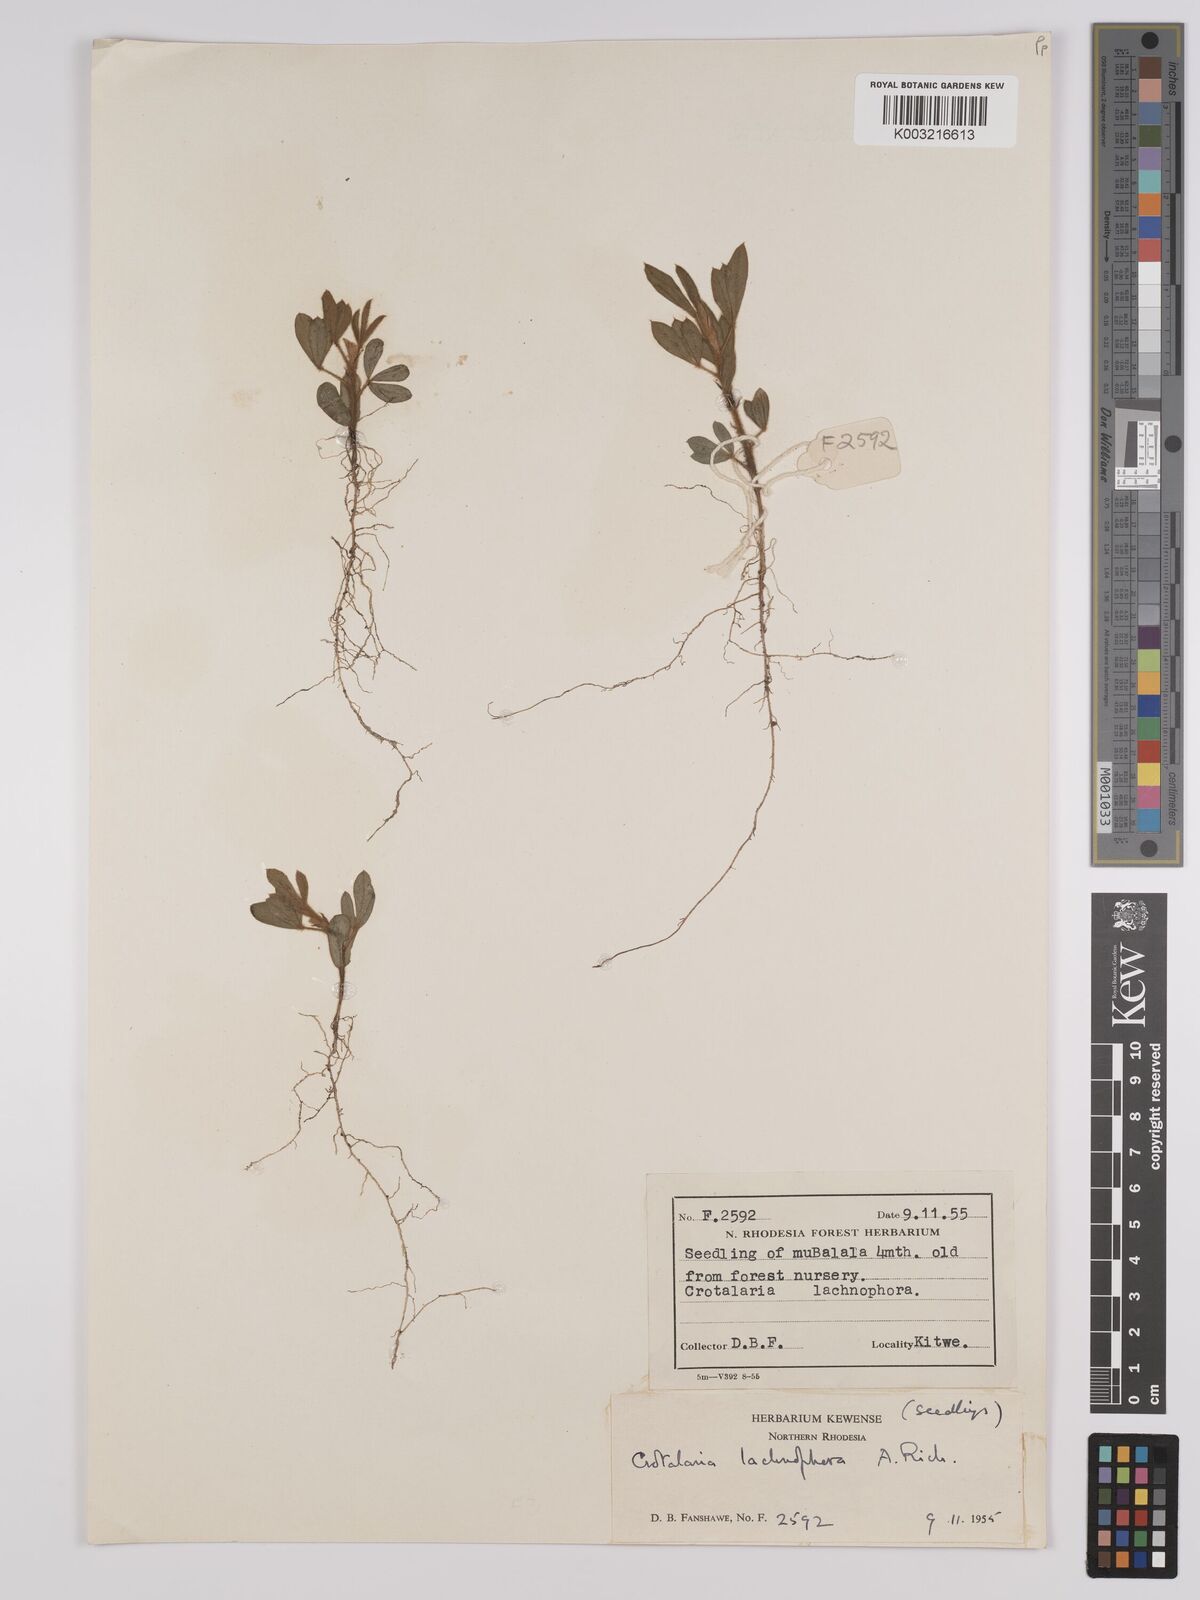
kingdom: Plantae
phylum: Tracheophyta
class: Magnoliopsida
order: Fabales
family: Fabaceae
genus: Crotalaria
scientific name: Crotalaria lachnophora
